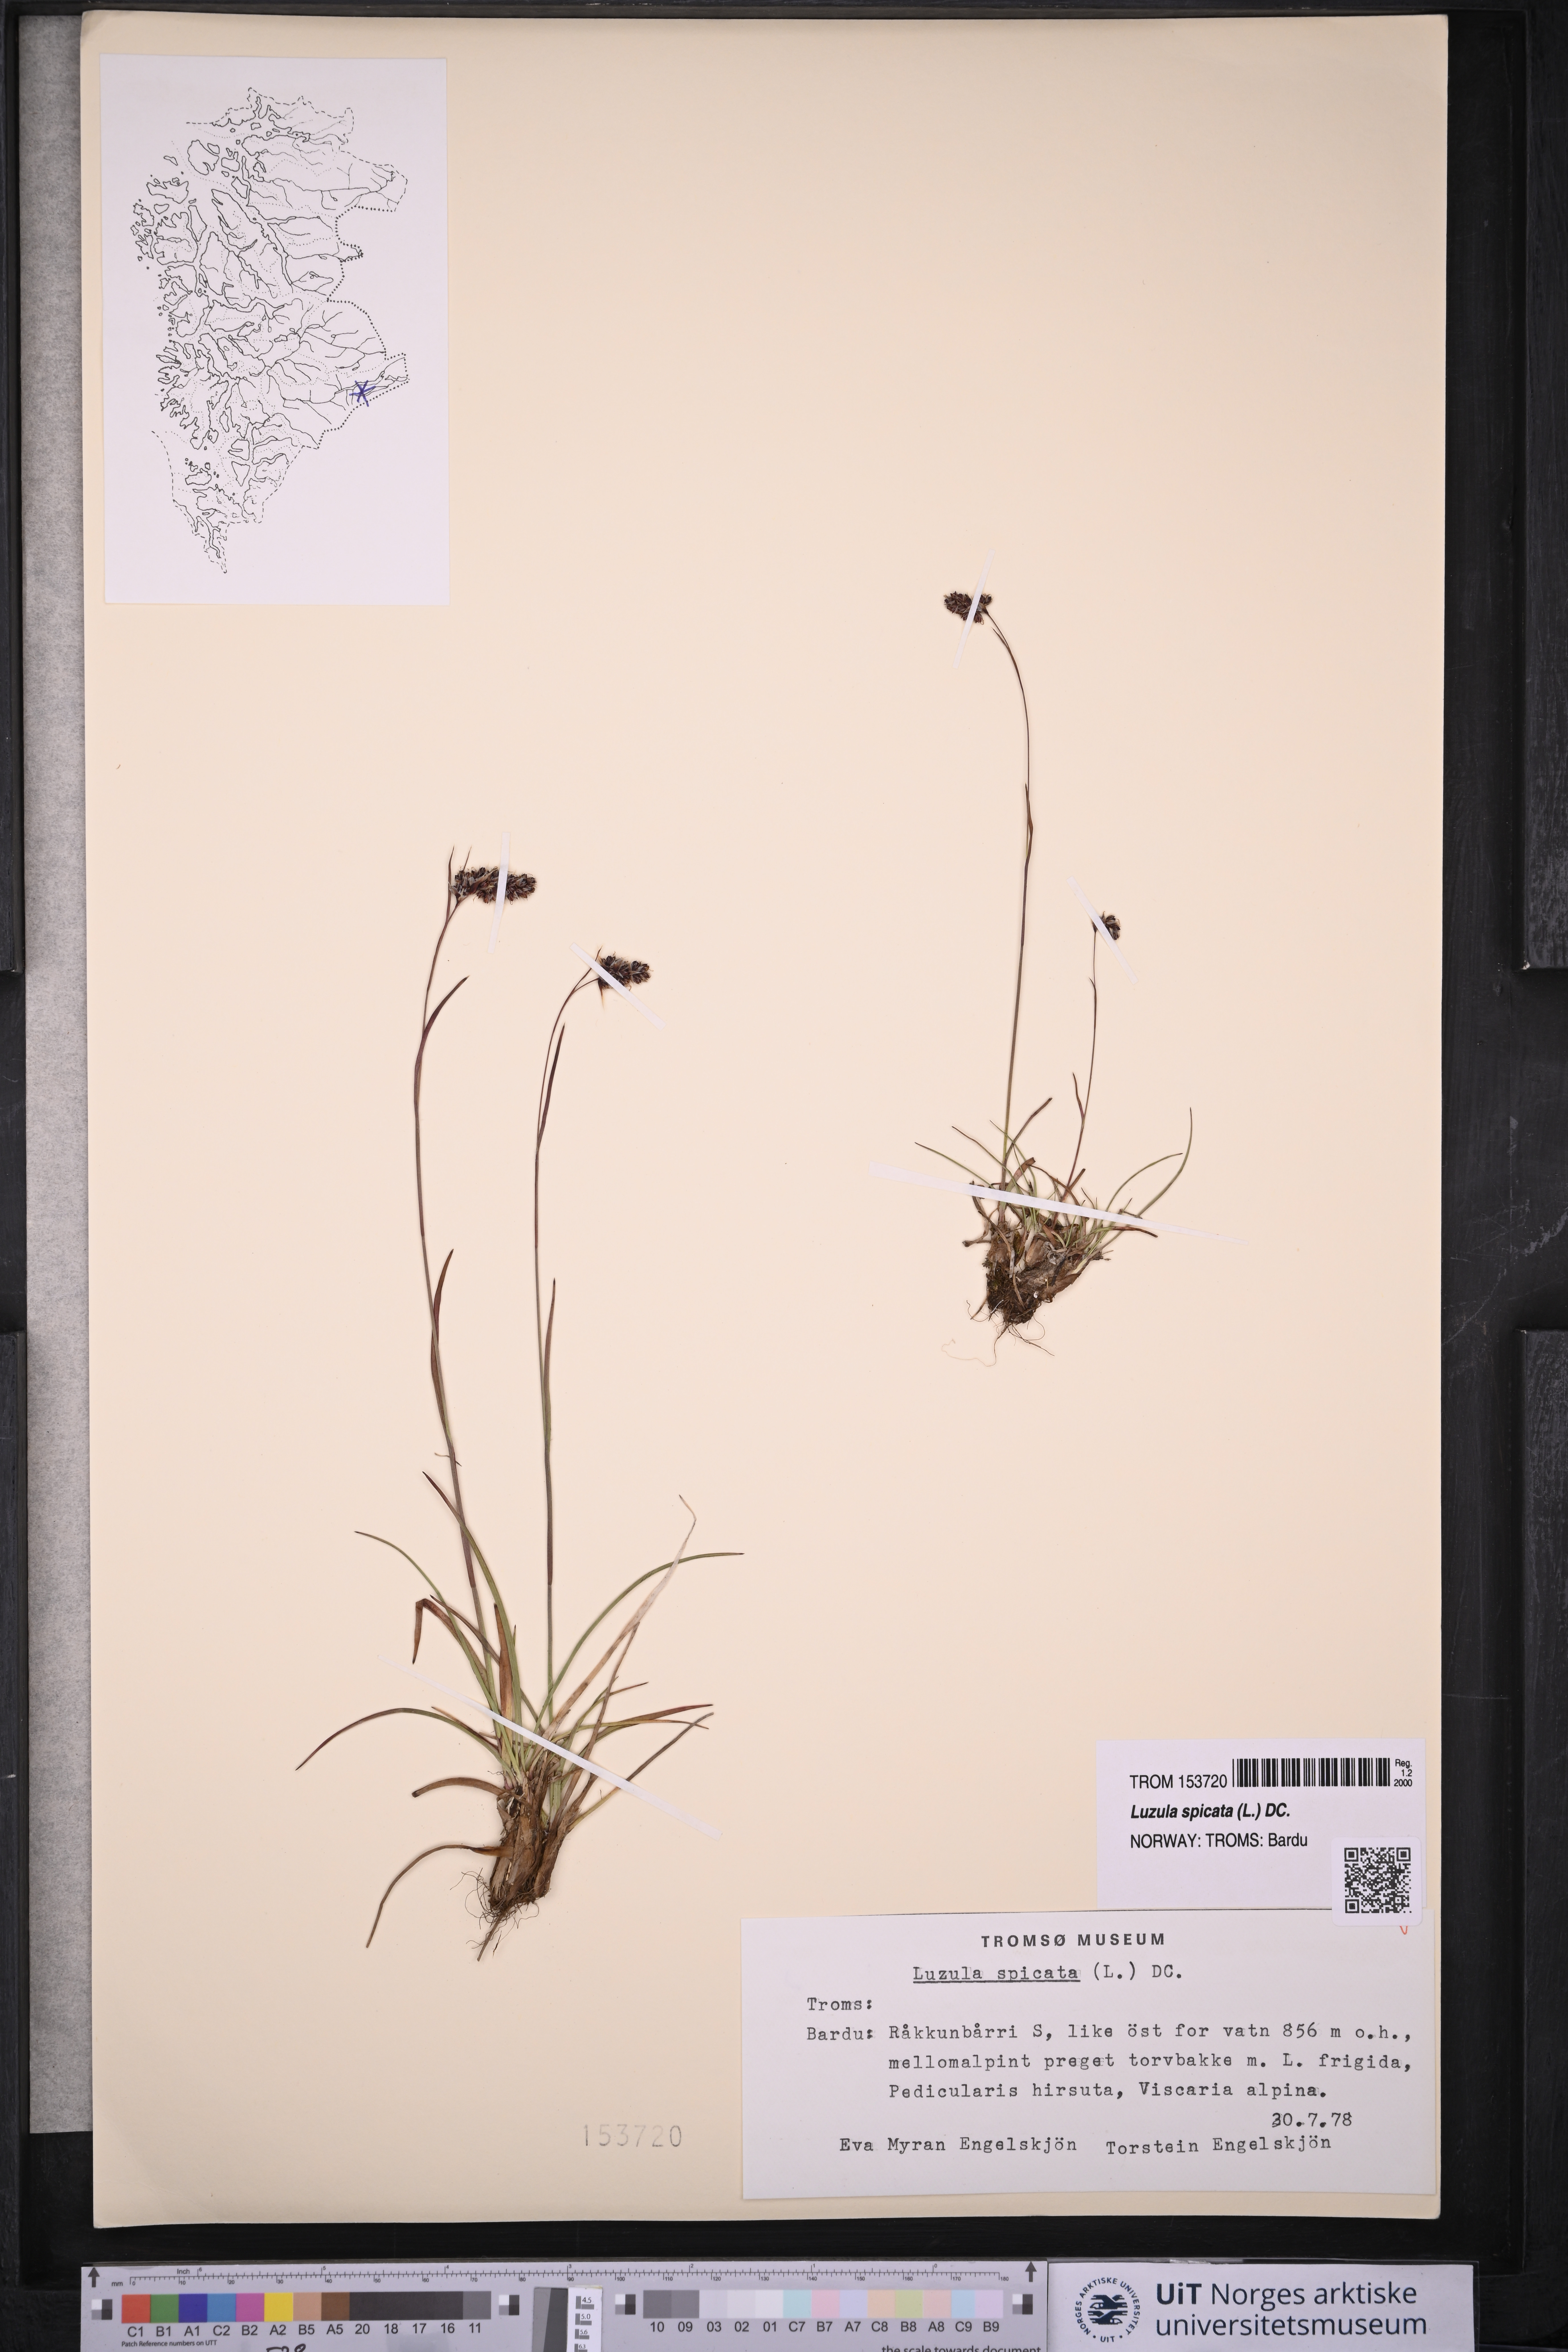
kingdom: Plantae
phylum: Tracheophyta
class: Liliopsida
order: Poales
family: Juncaceae
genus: Luzula
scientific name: Luzula spicata
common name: Spiked wood-rush
